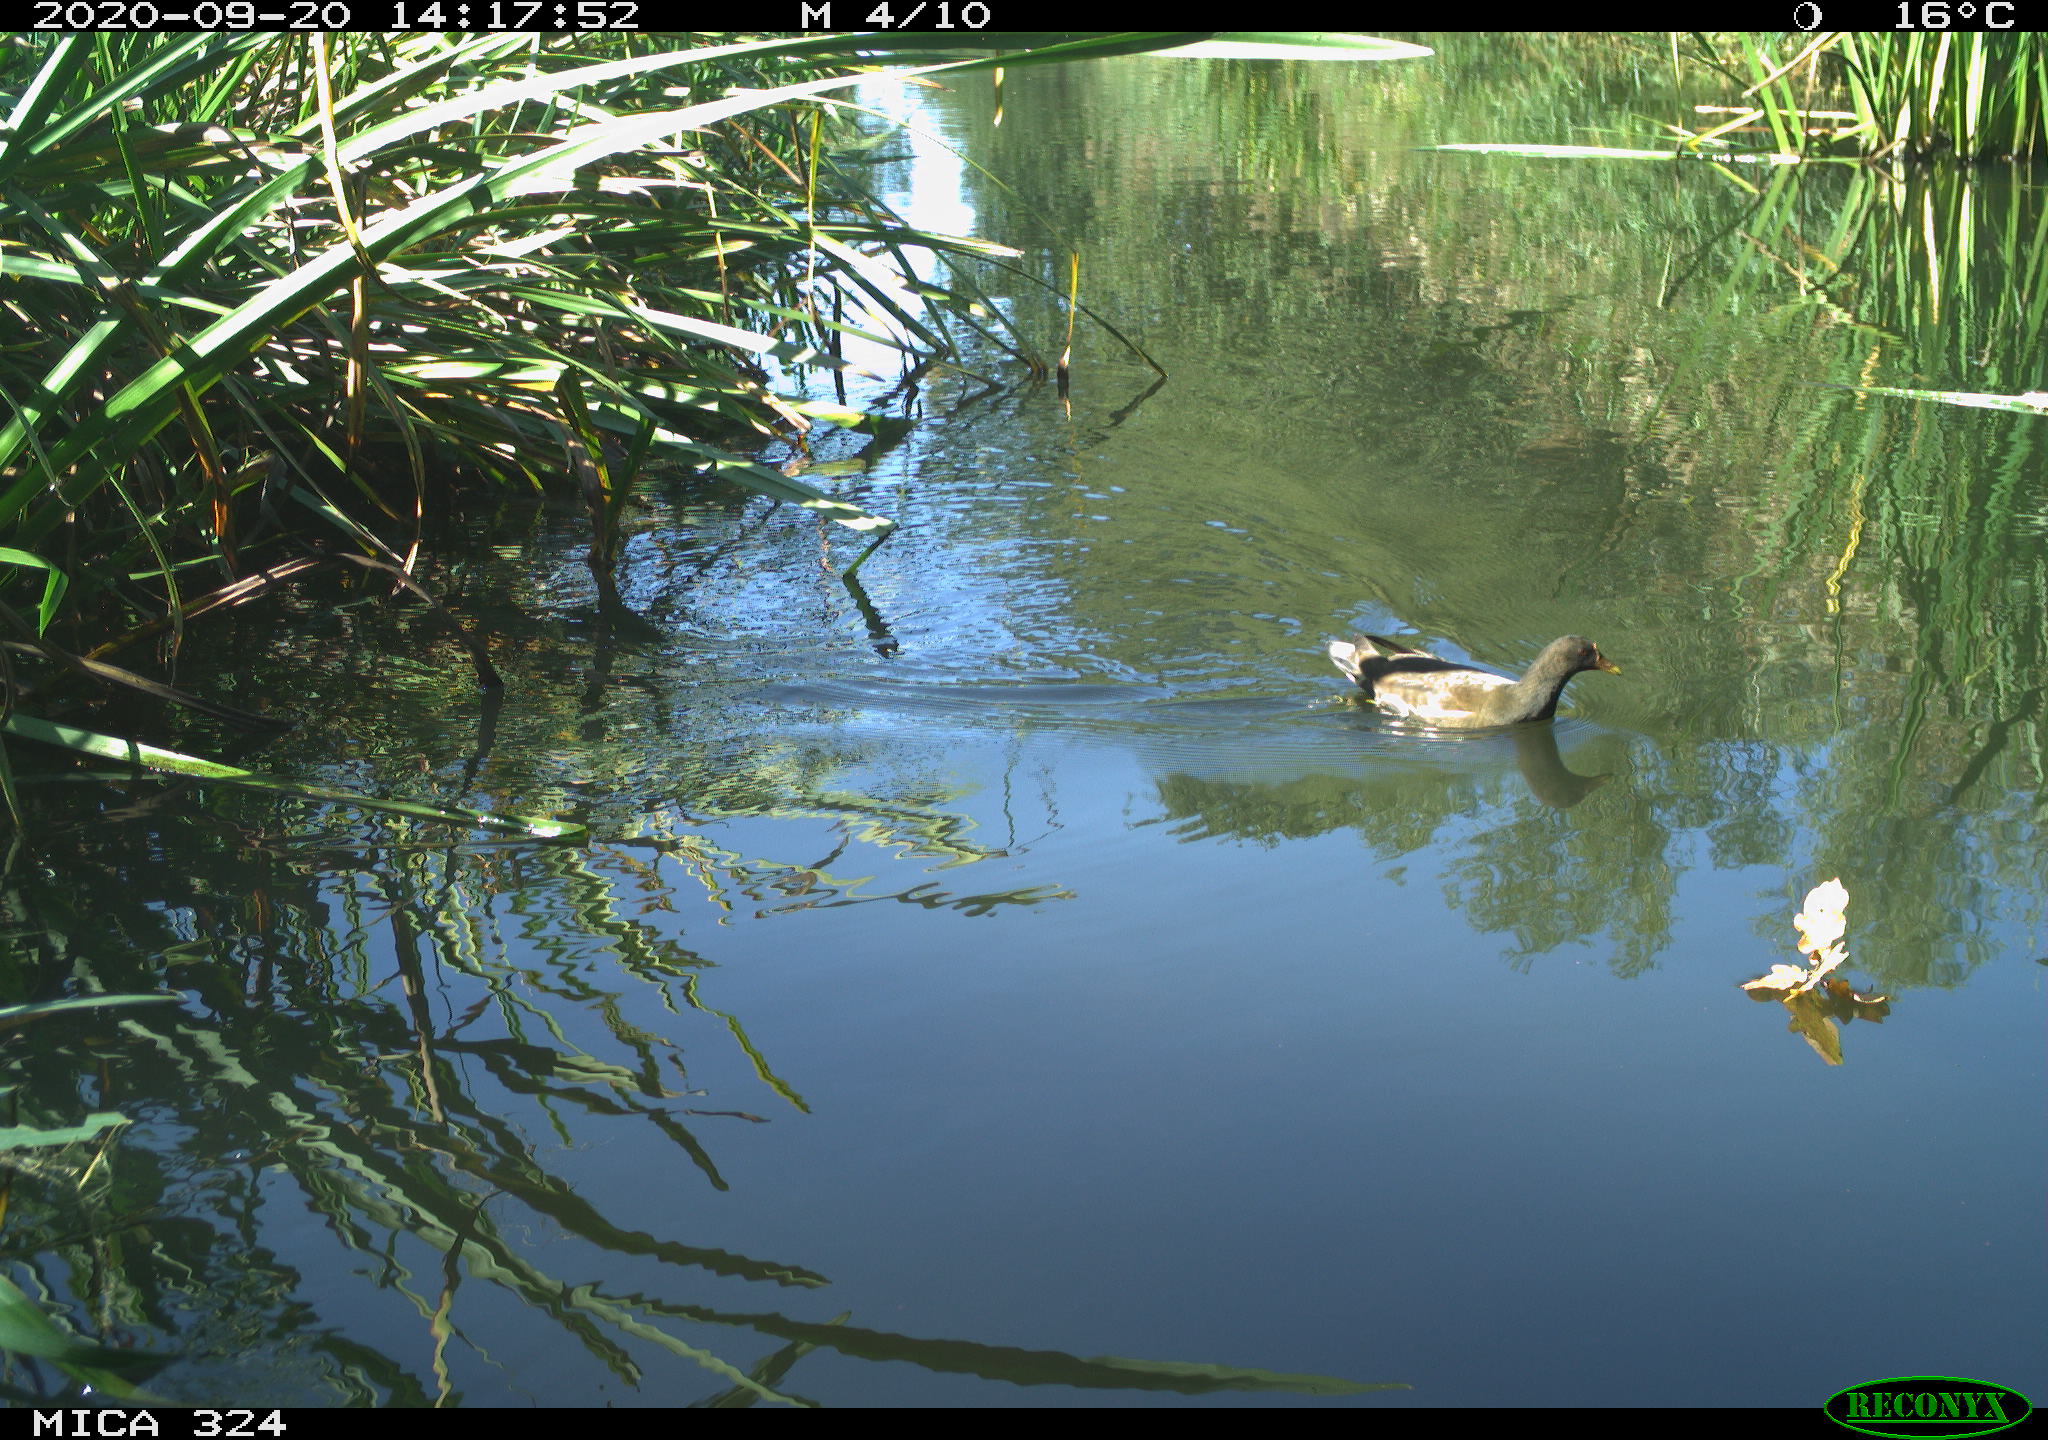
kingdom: Animalia
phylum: Chordata
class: Aves
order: Gruiformes
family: Rallidae
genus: Gallinula
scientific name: Gallinula chloropus
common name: Common moorhen
